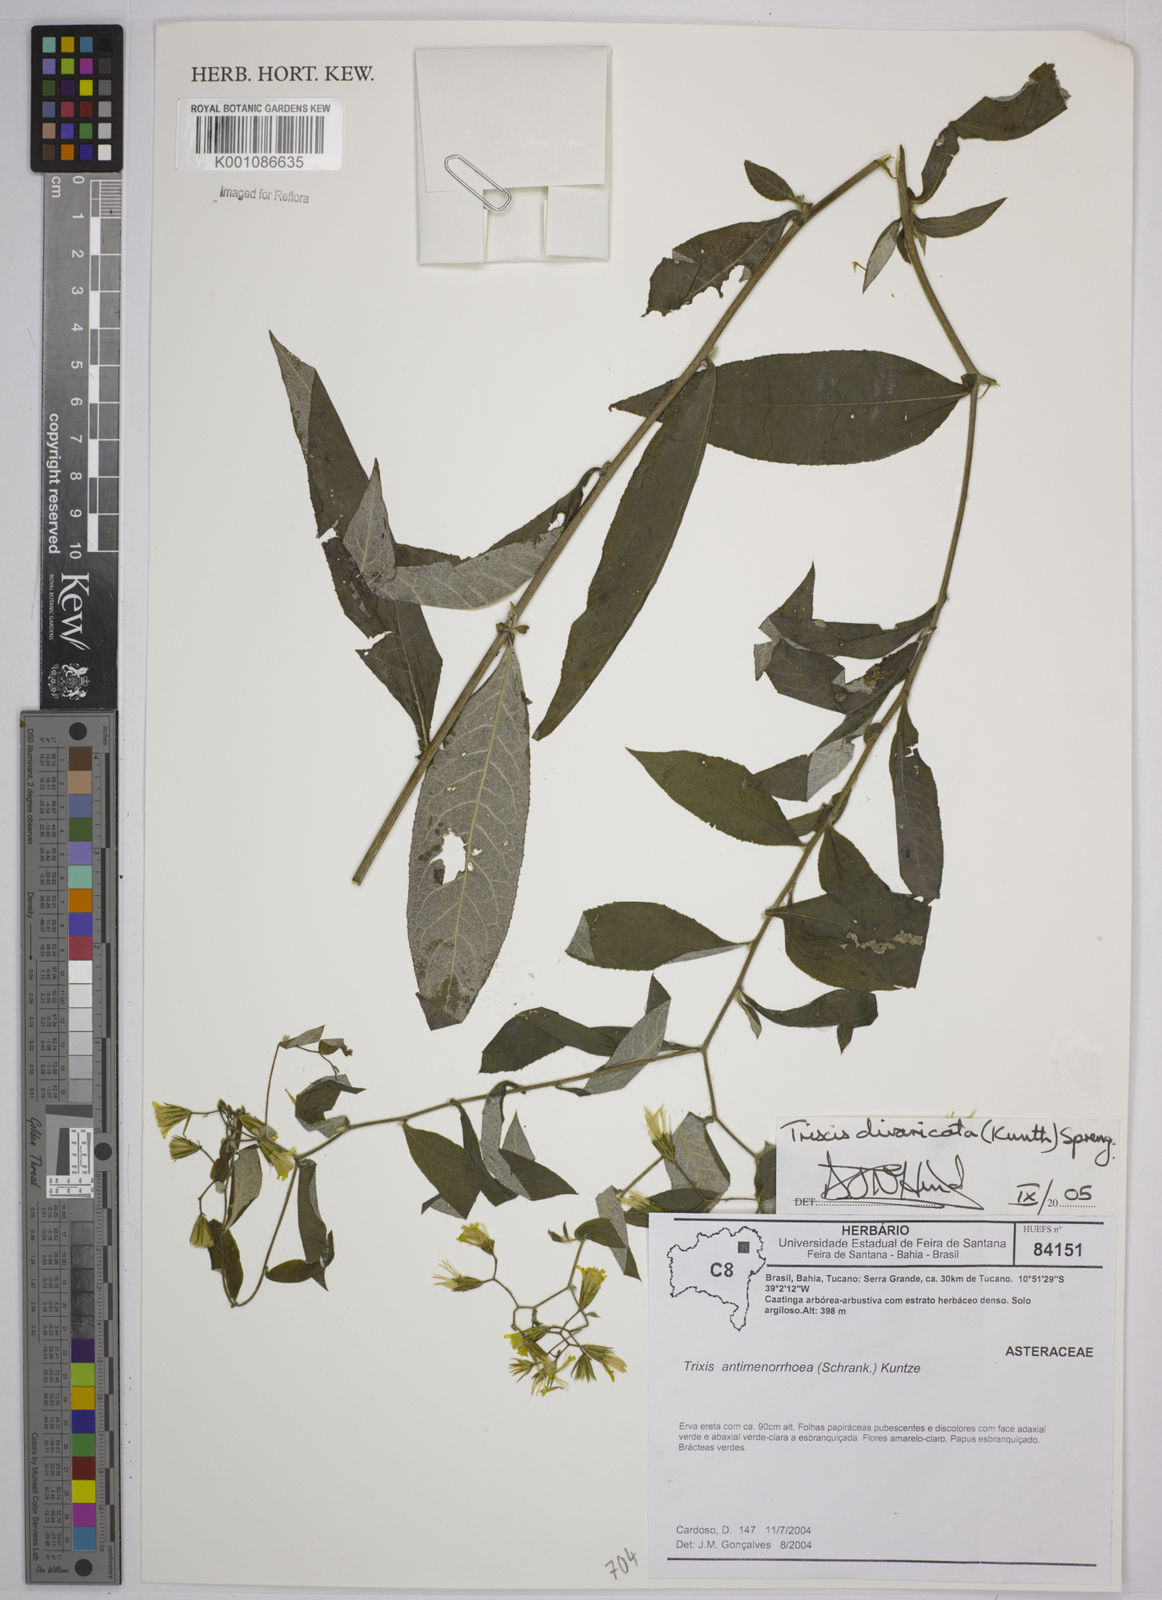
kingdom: Plantae
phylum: Tracheophyta
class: Magnoliopsida
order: Asterales
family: Asteraceae
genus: Trixis
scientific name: Trixis divaricata
